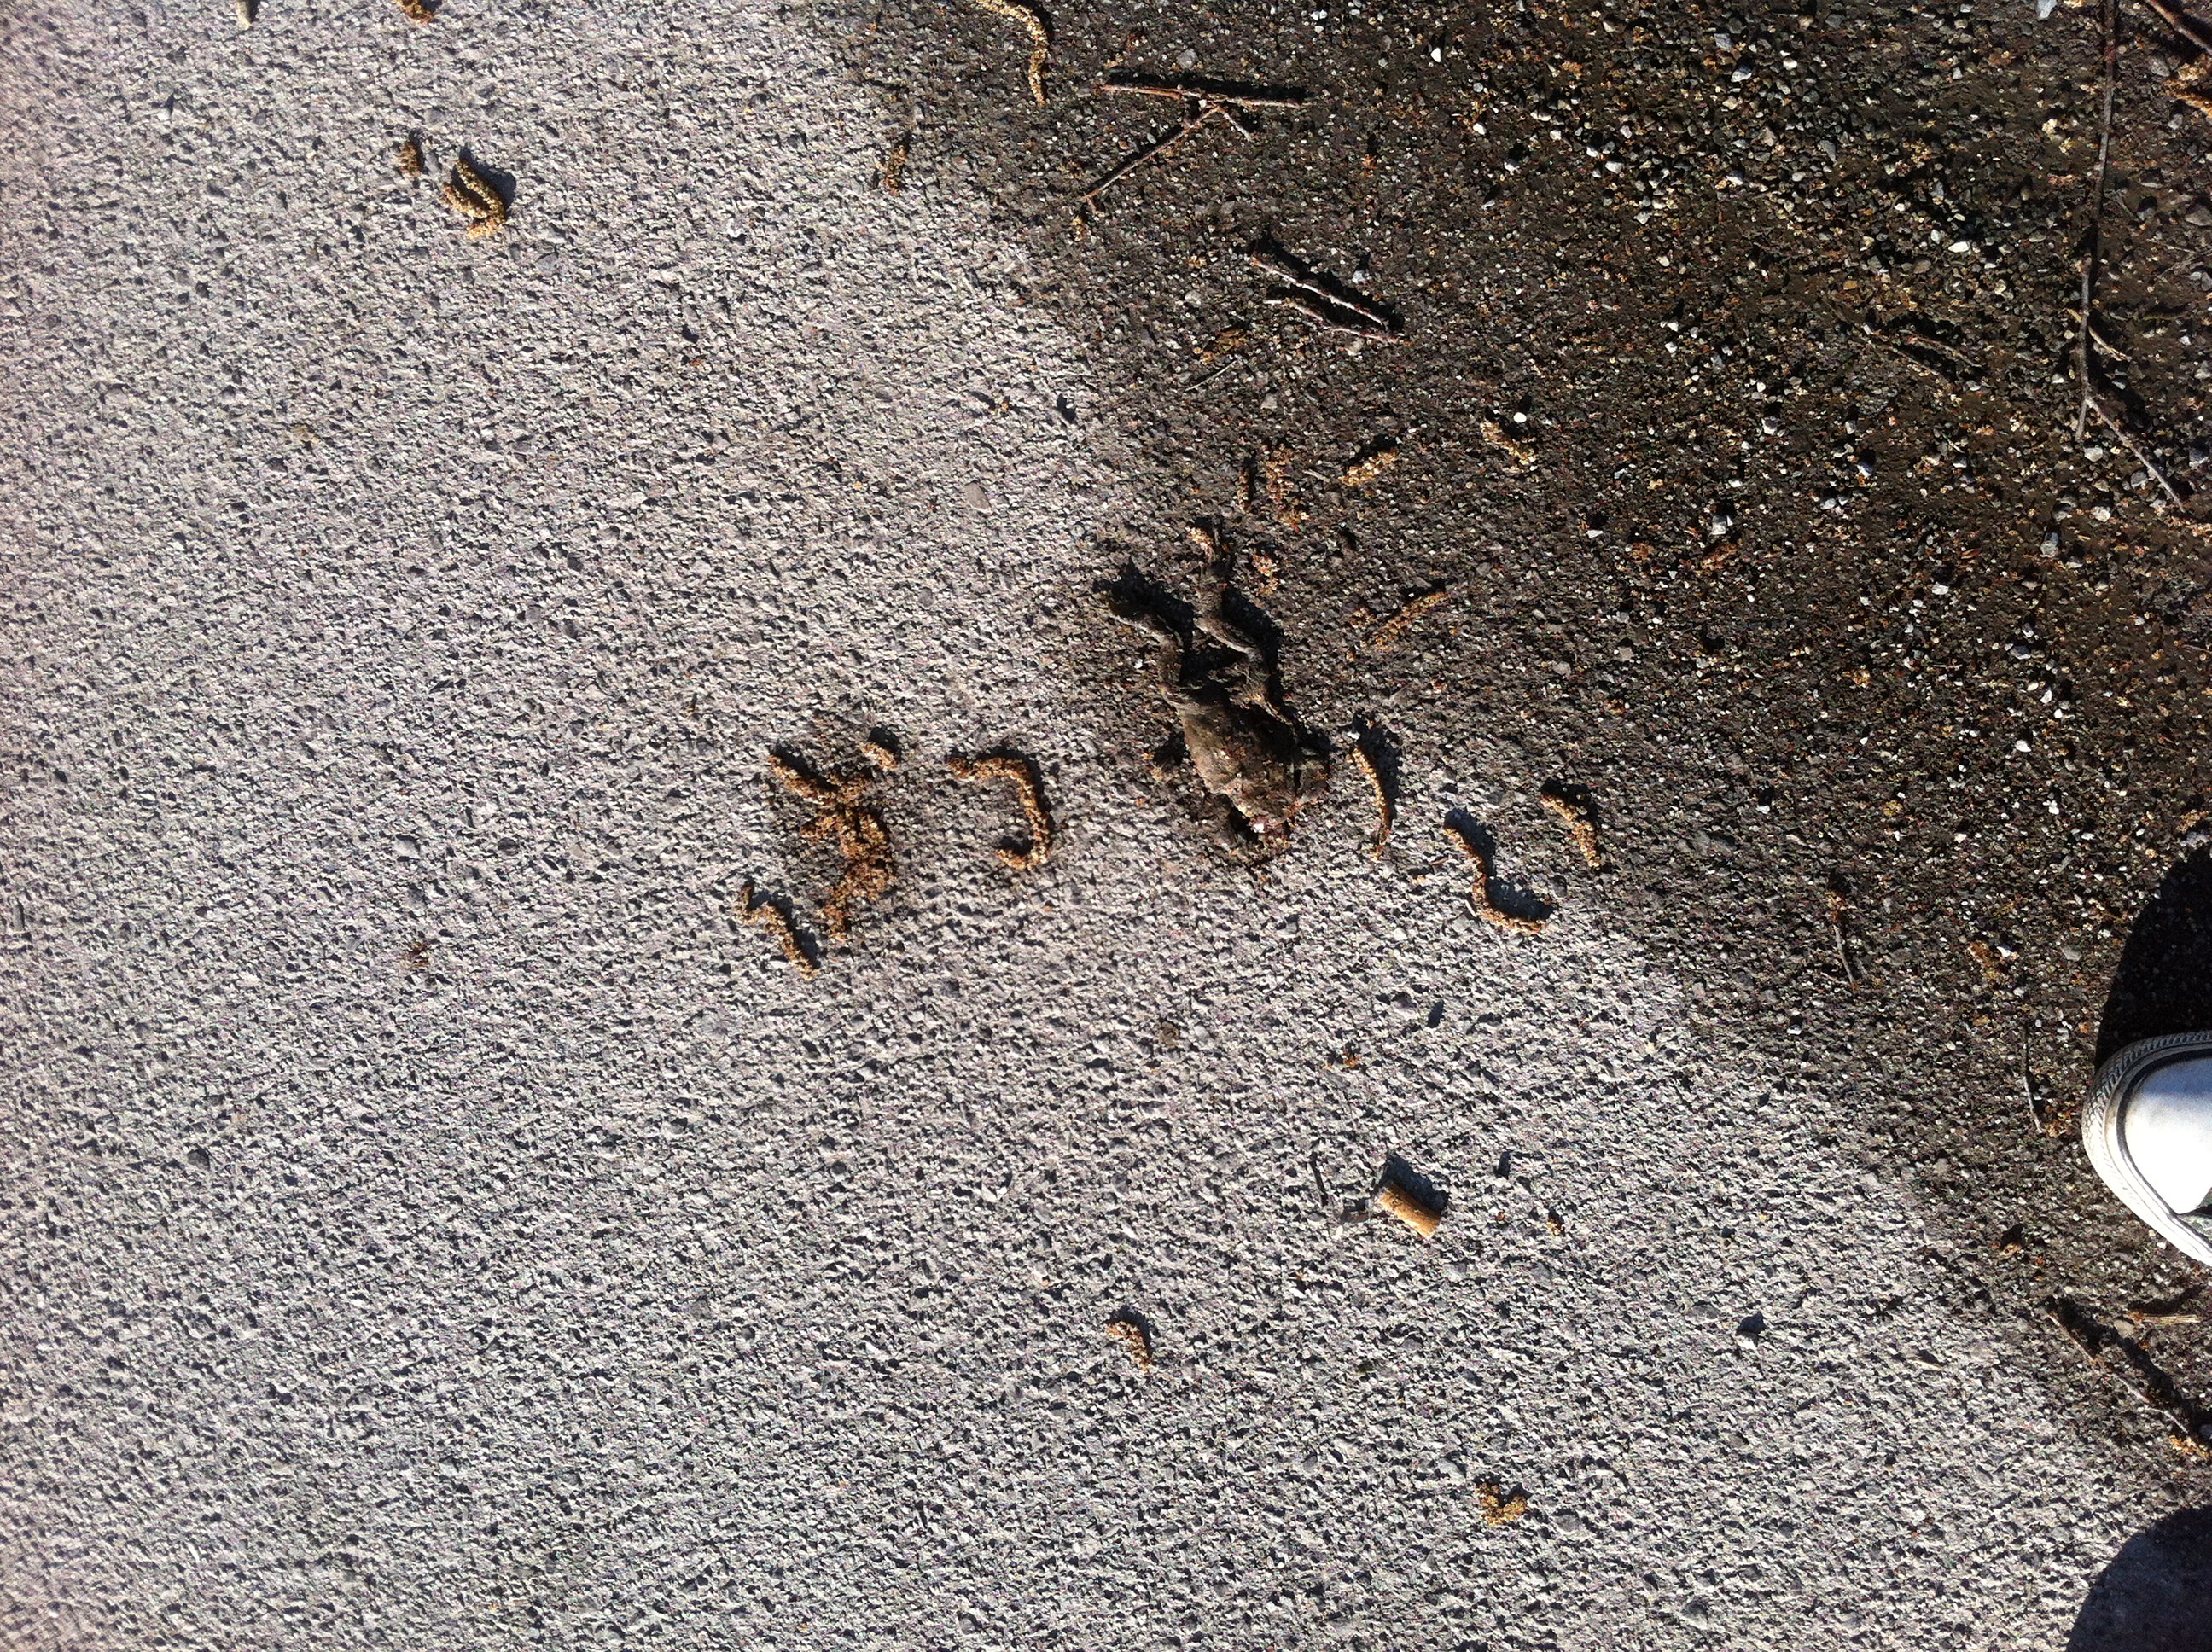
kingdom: Animalia
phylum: Chordata
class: Amphibia
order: Anura
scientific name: Anura
